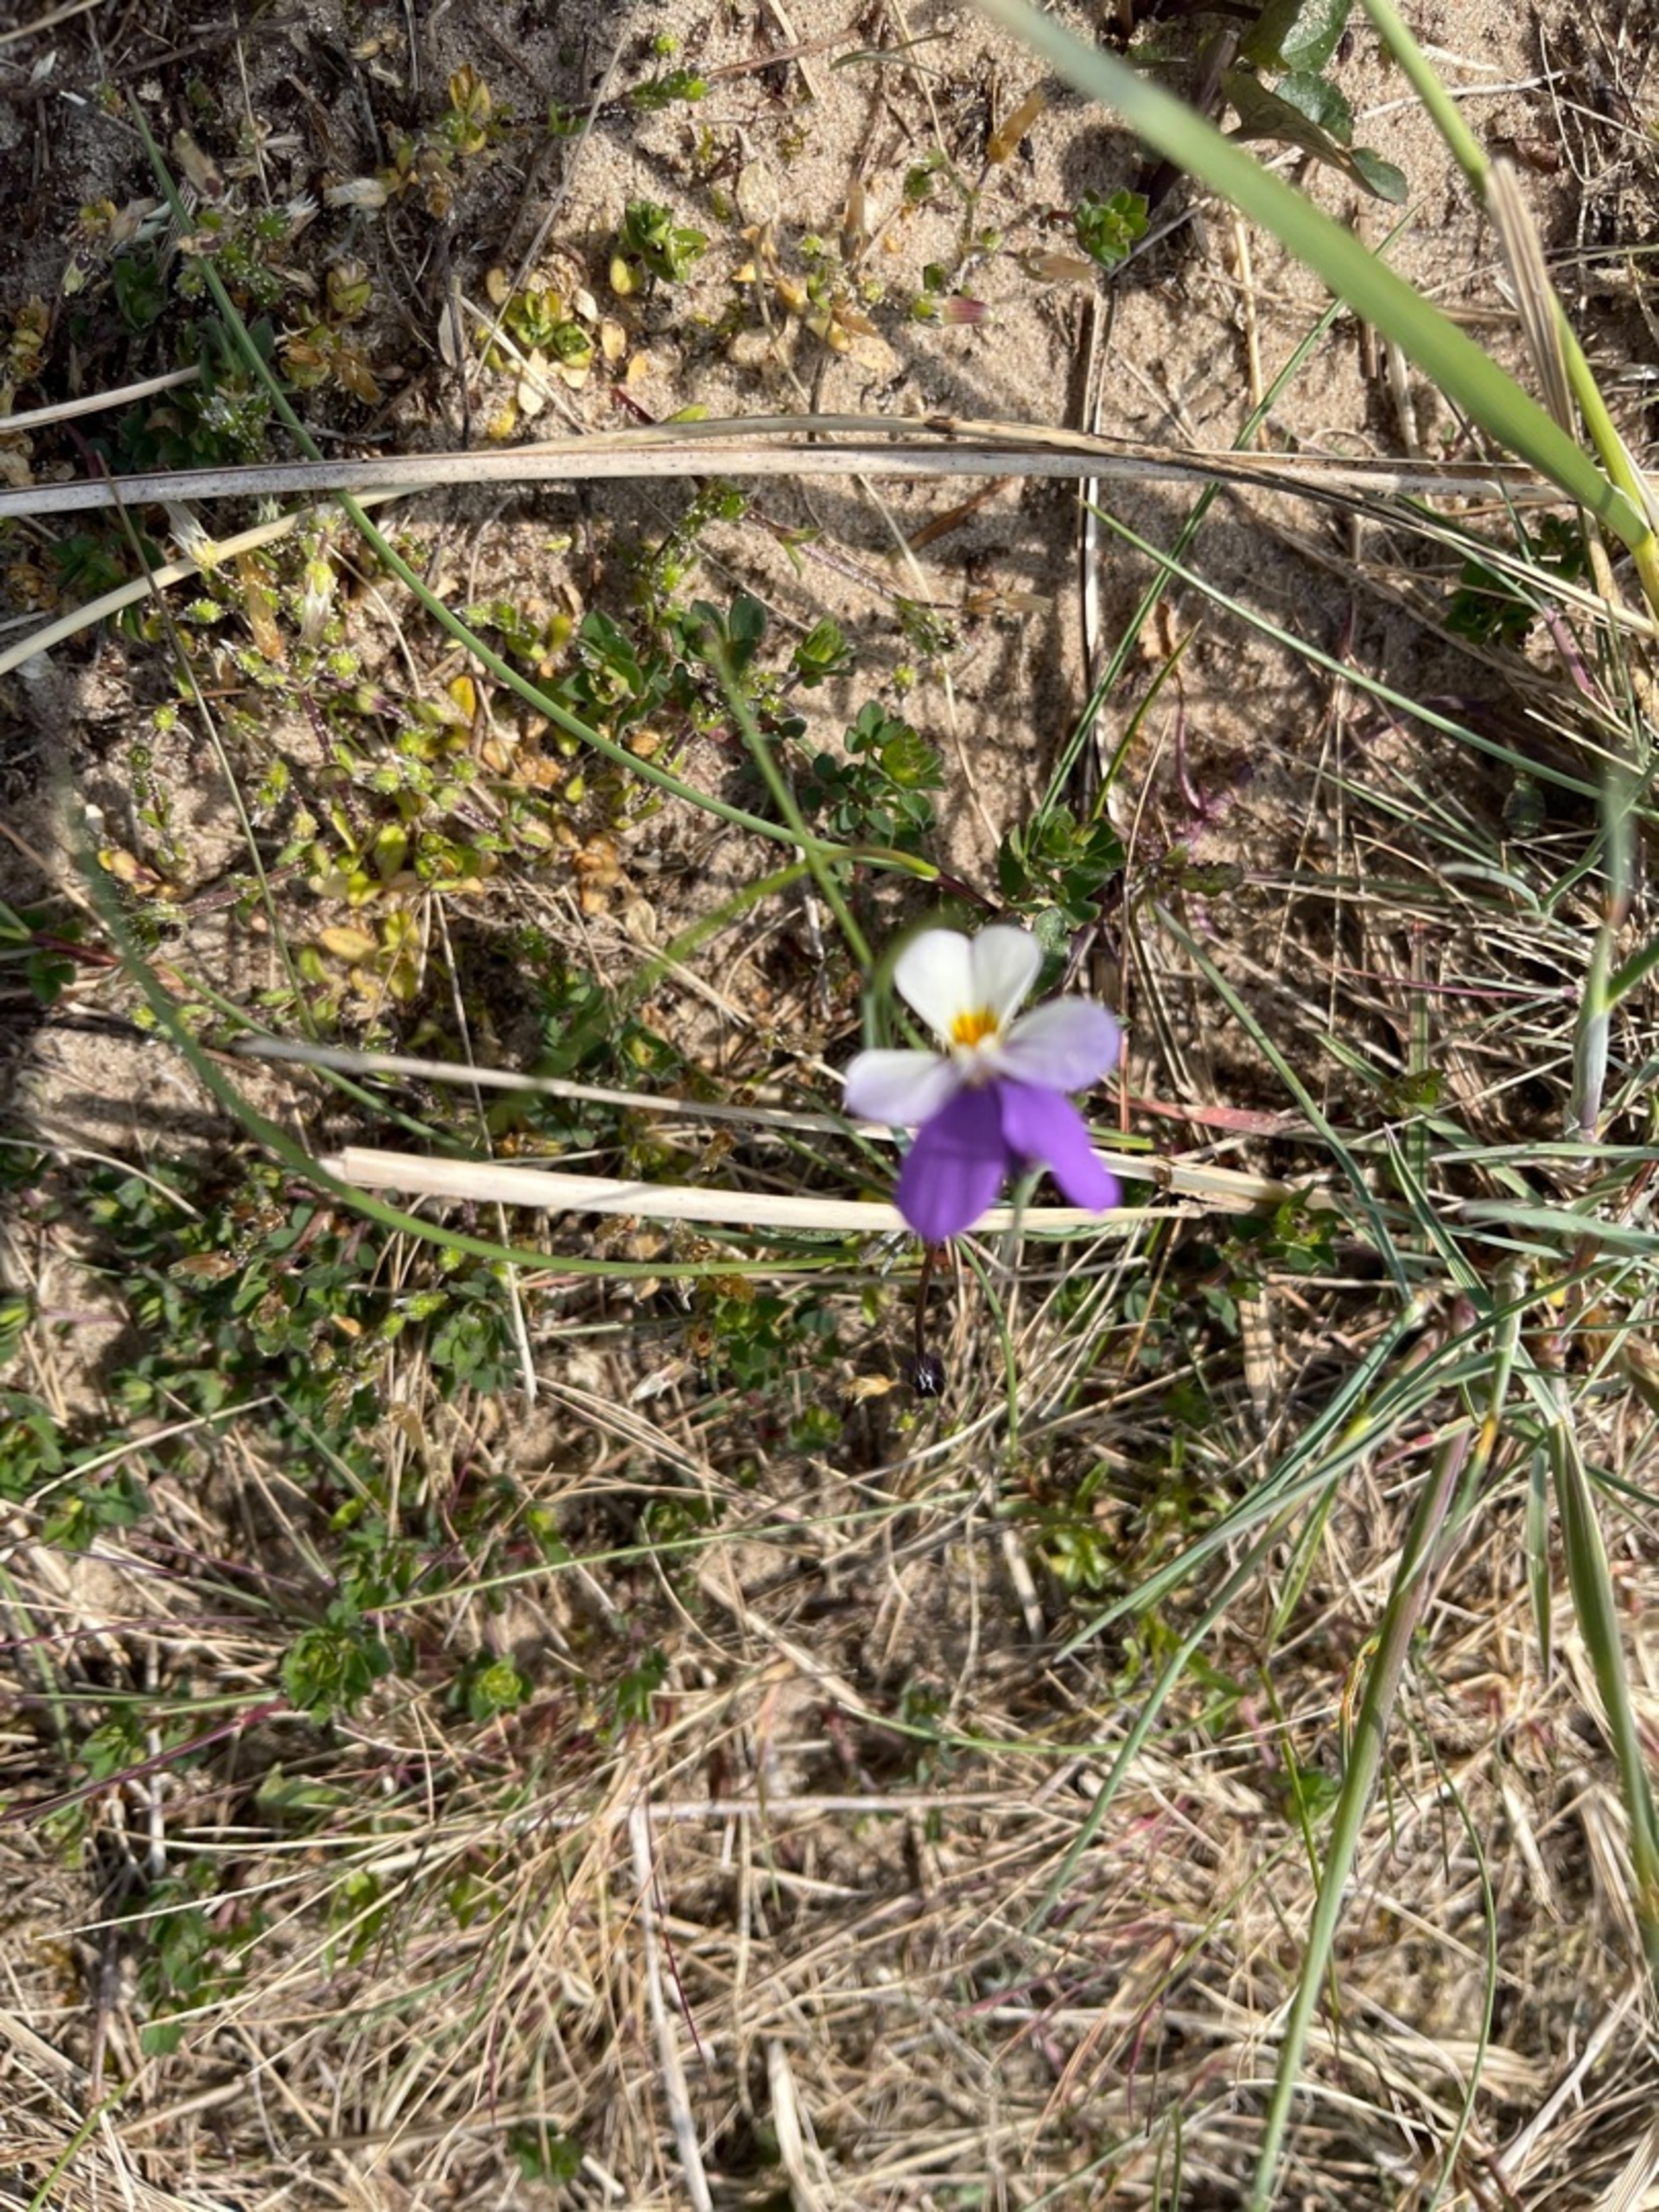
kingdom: Plantae
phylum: Tracheophyta
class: Magnoliopsida
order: Malpighiales
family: Violaceae
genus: Viola
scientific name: Viola tricolor
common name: Klit-stedmoderblomst
